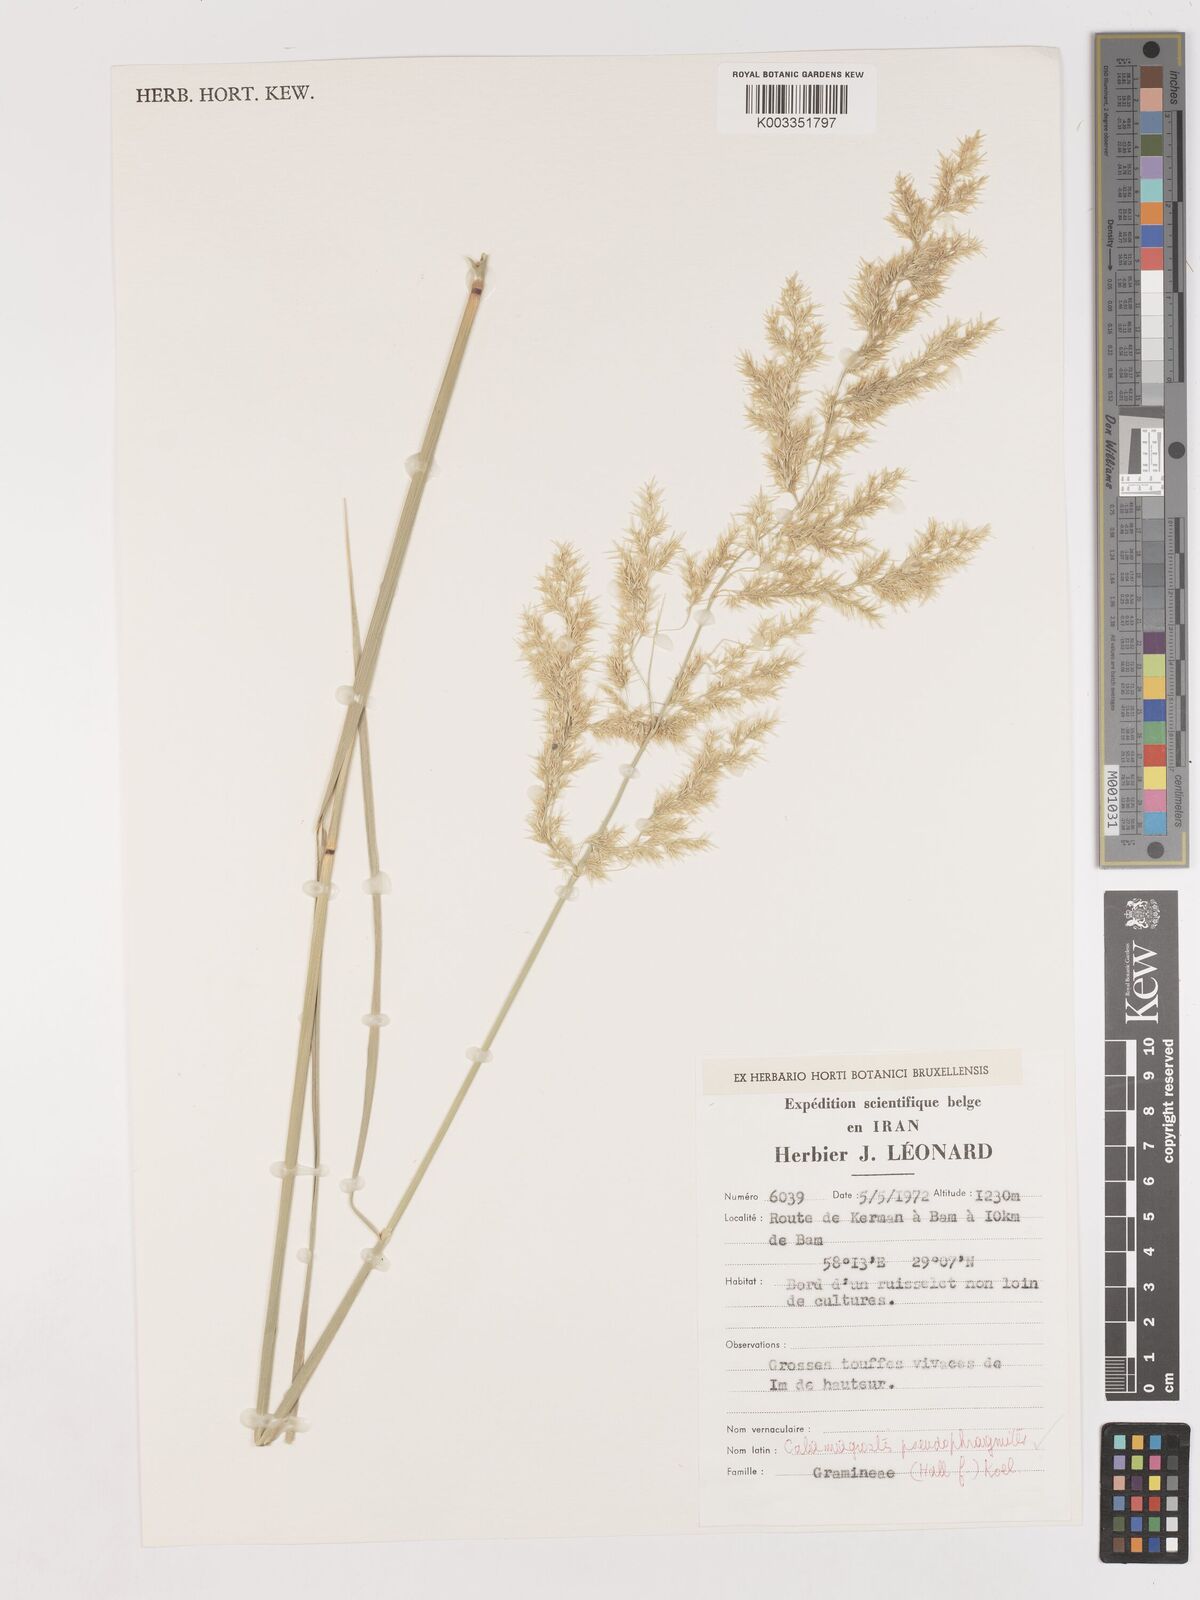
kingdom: Plantae
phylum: Tracheophyta
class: Liliopsida
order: Poales
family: Poaceae
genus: Calamagrostis
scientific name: Calamagrostis pseudophragmites
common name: Coastal small-reed
